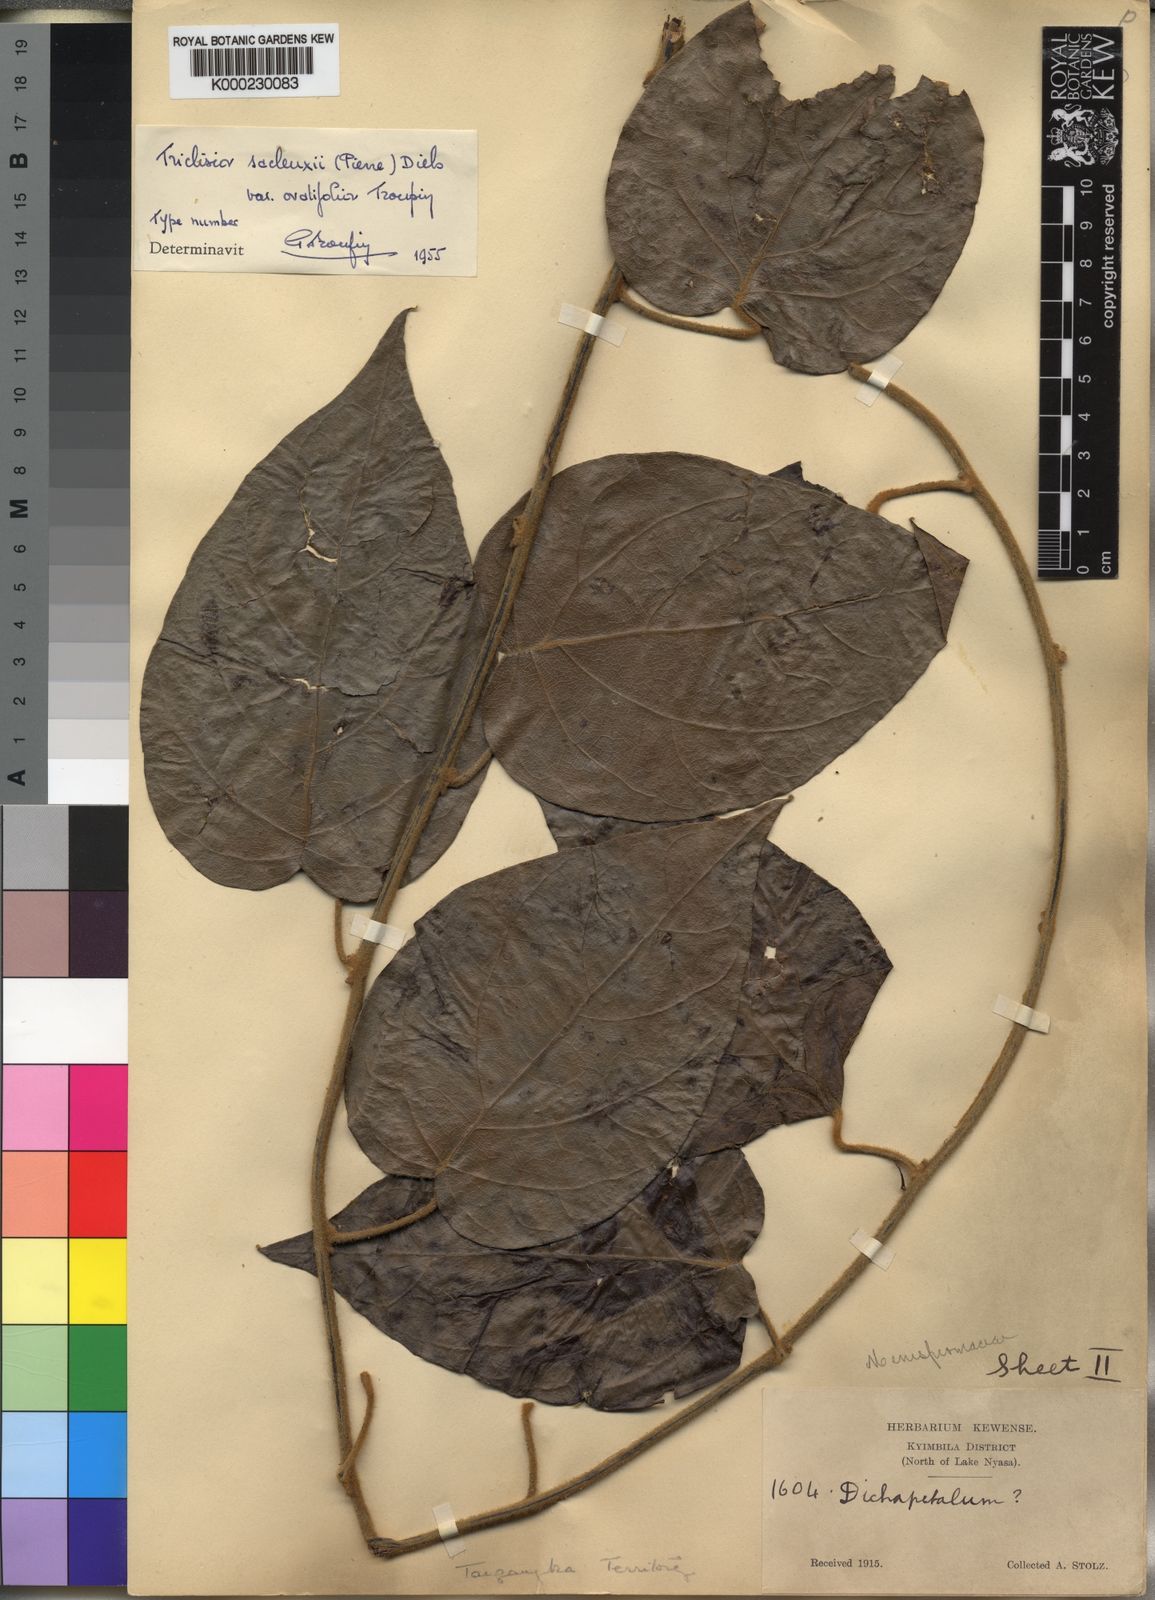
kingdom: Plantae
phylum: Tracheophyta
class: Magnoliopsida
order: Ranunculales
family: Menispermaceae
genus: Triclisia
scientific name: Triclisia sacleuxii
